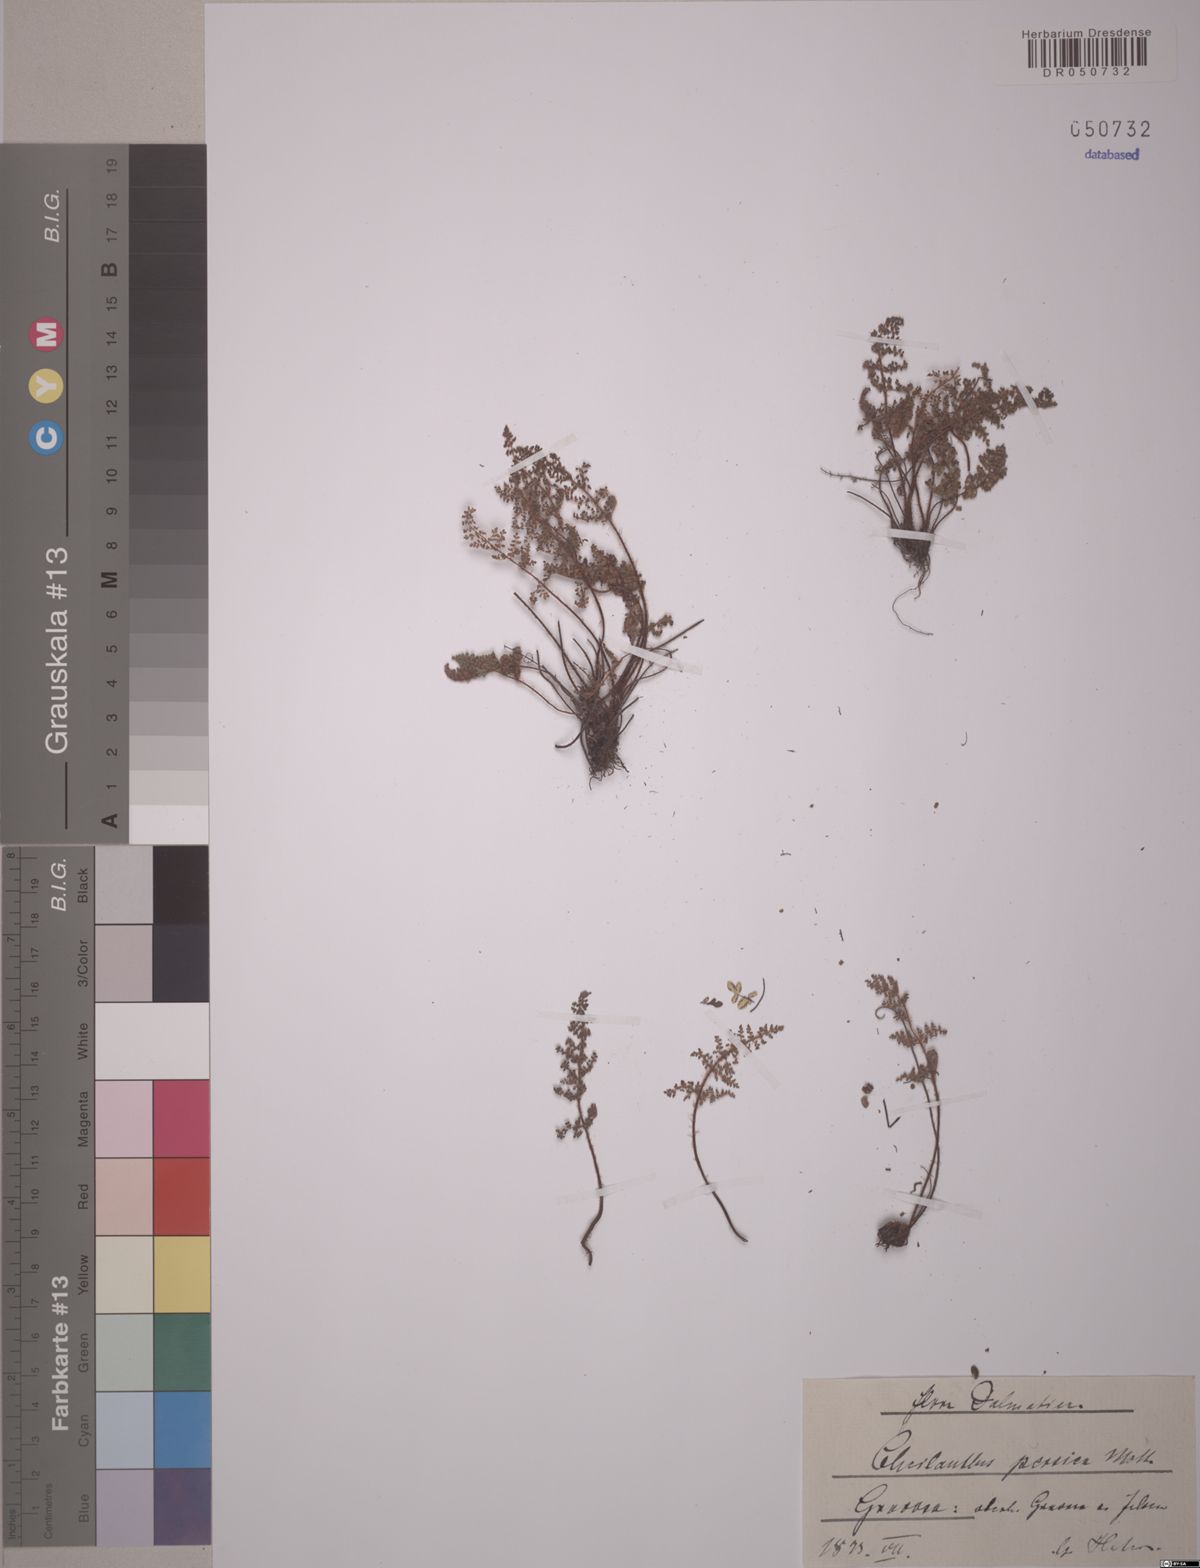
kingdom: Plantae
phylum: Tracheophyta
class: Polypodiopsida
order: Polypodiales
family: Pteridaceae
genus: Oeosporangium
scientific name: Oeosporangium persicum
